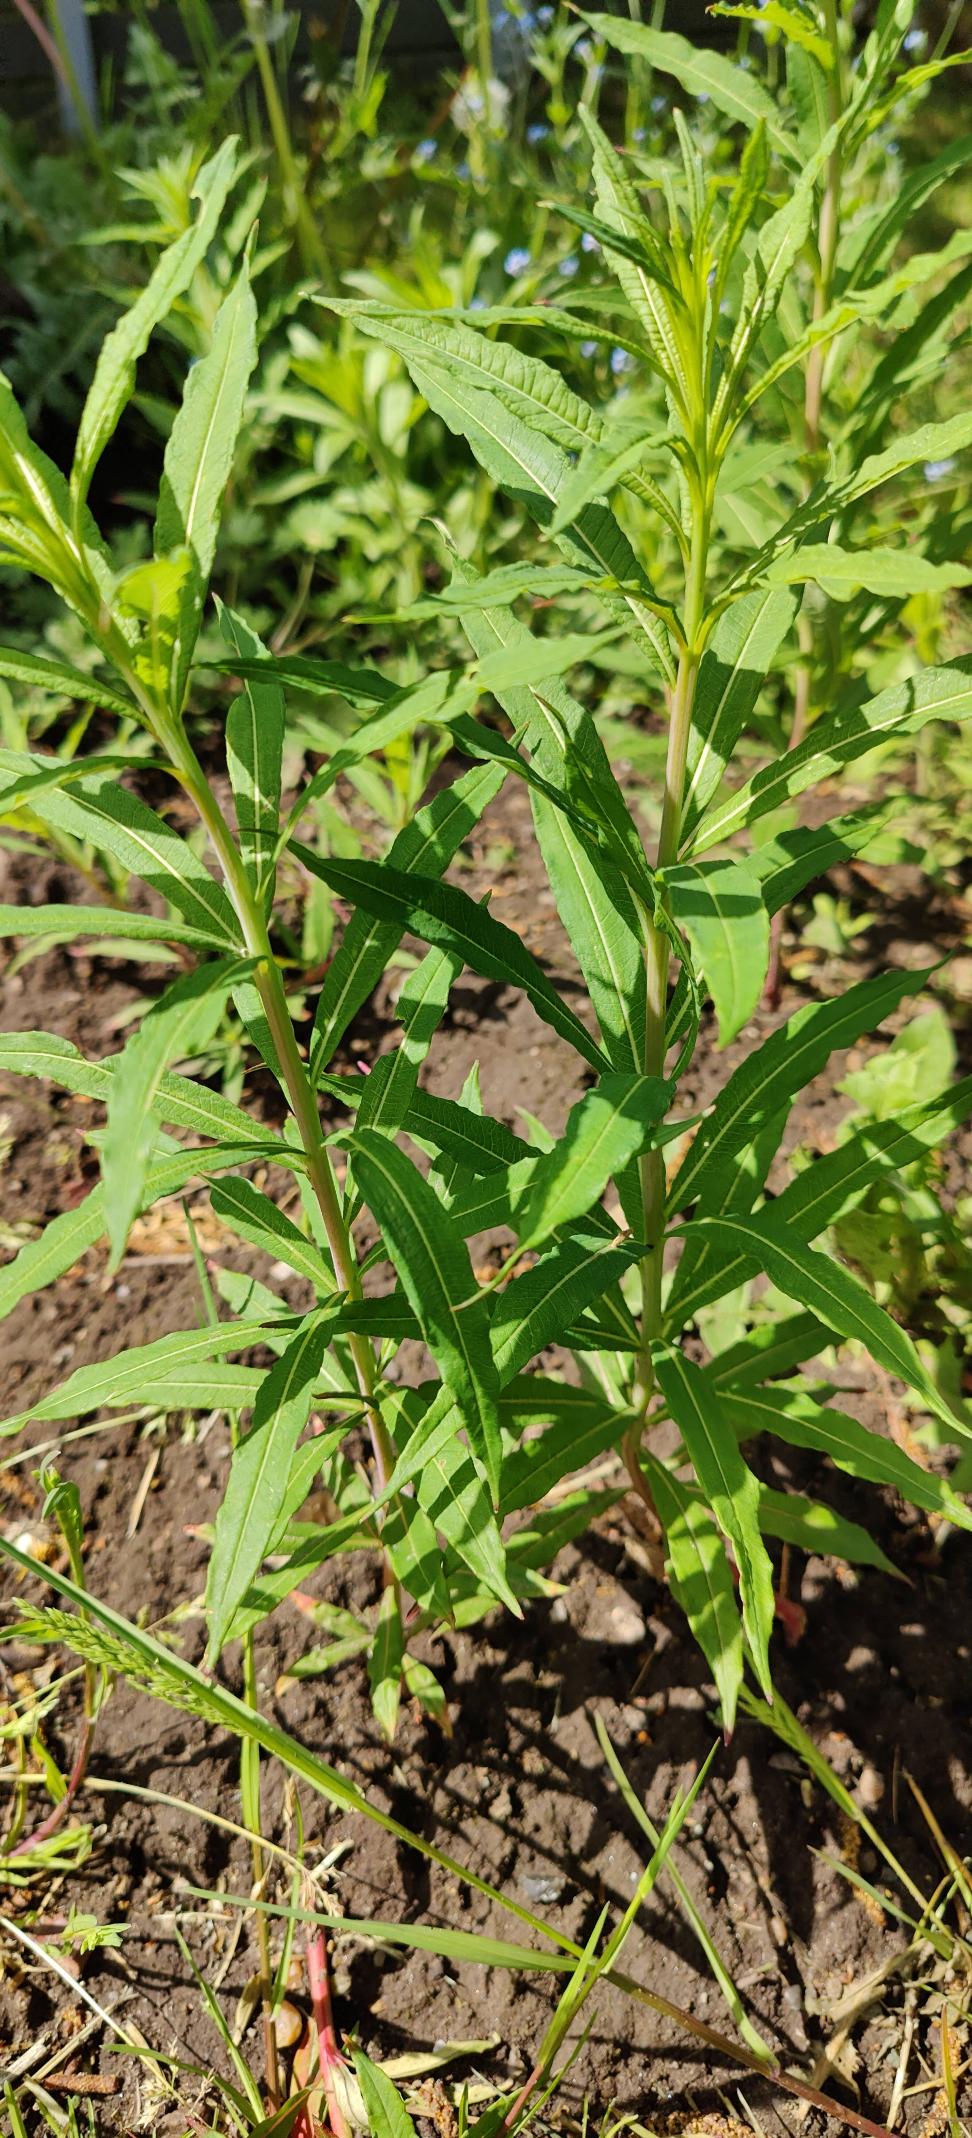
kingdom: Plantae
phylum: Tracheophyta
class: Magnoliopsida
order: Myrtales
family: Onagraceae
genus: Chamaenerion
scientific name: Chamaenerion angustifolium
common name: Gederams
